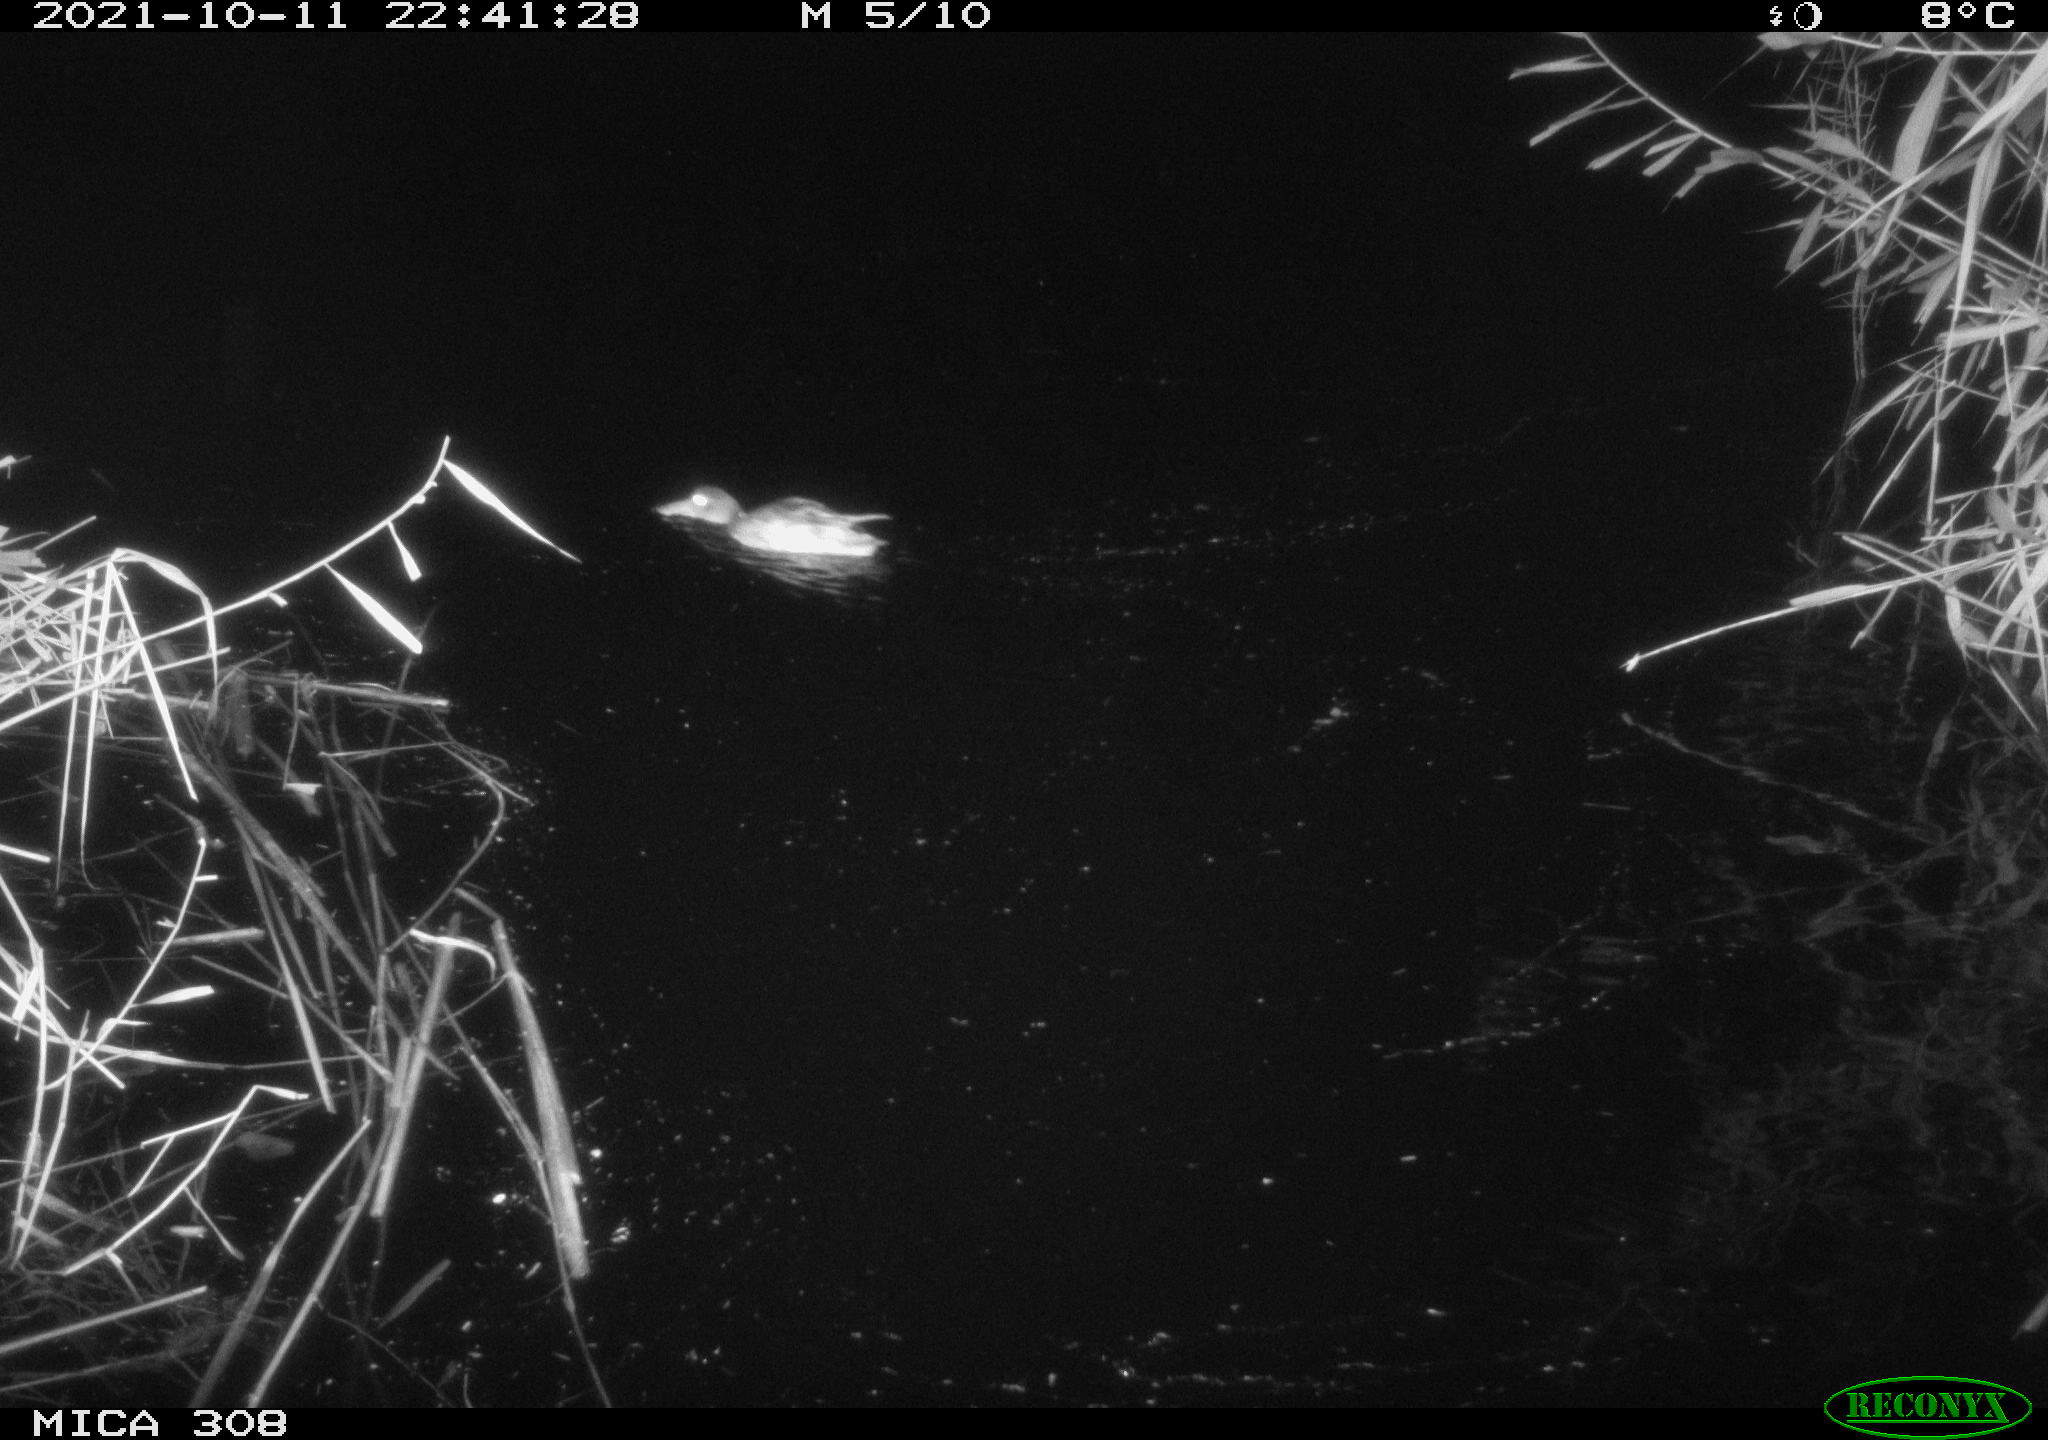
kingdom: Animalia
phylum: Chordata
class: Aves
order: Anseriformes
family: Anatidae
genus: Spatula
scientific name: Spatula clypeata
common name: Northern shoveler
